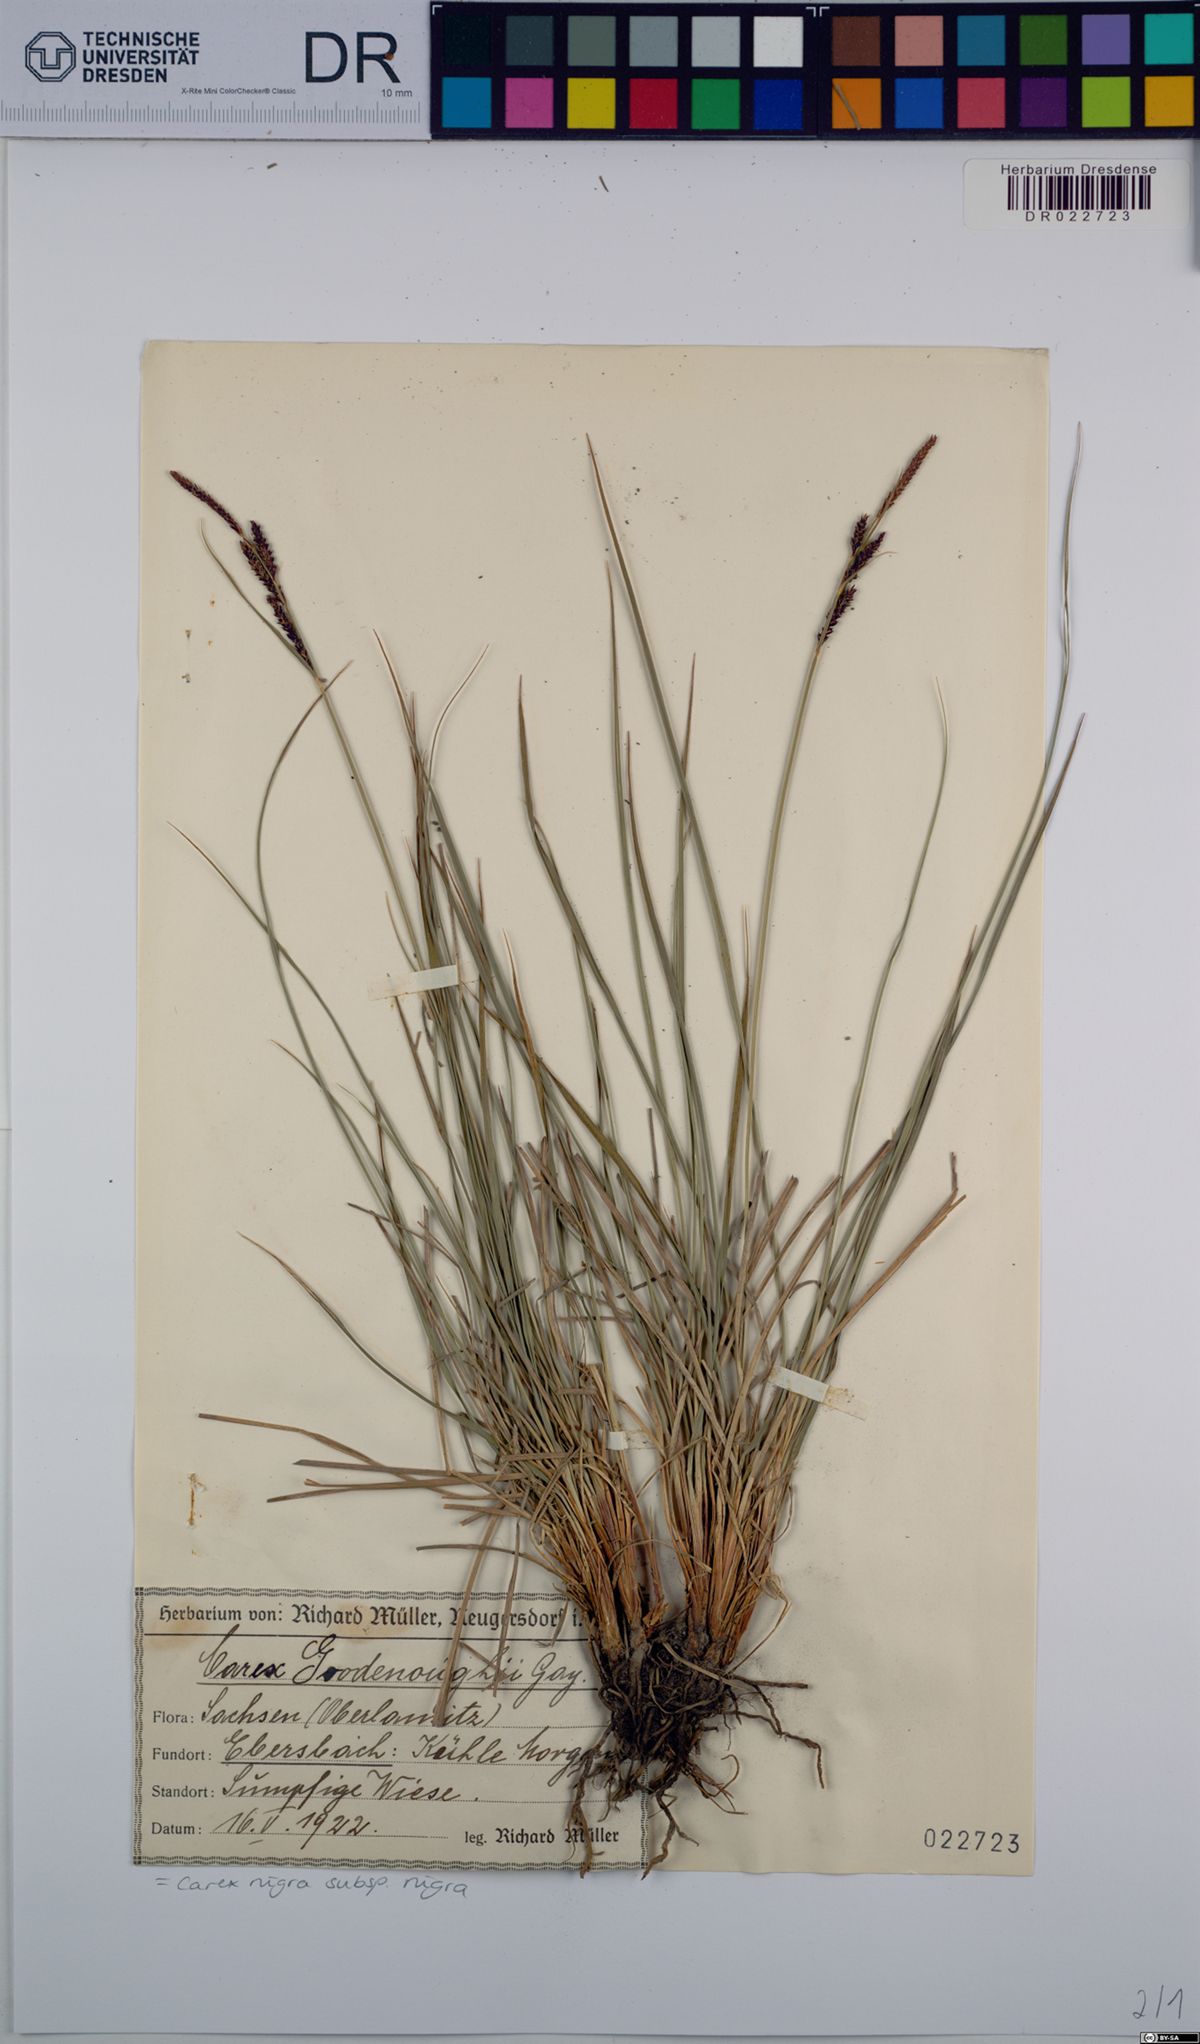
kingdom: Plantae
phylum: Tracheophyta
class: Liliopsida
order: Poales
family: Cyperaceae
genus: Carex
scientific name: Carex nigra
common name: Common sedge
